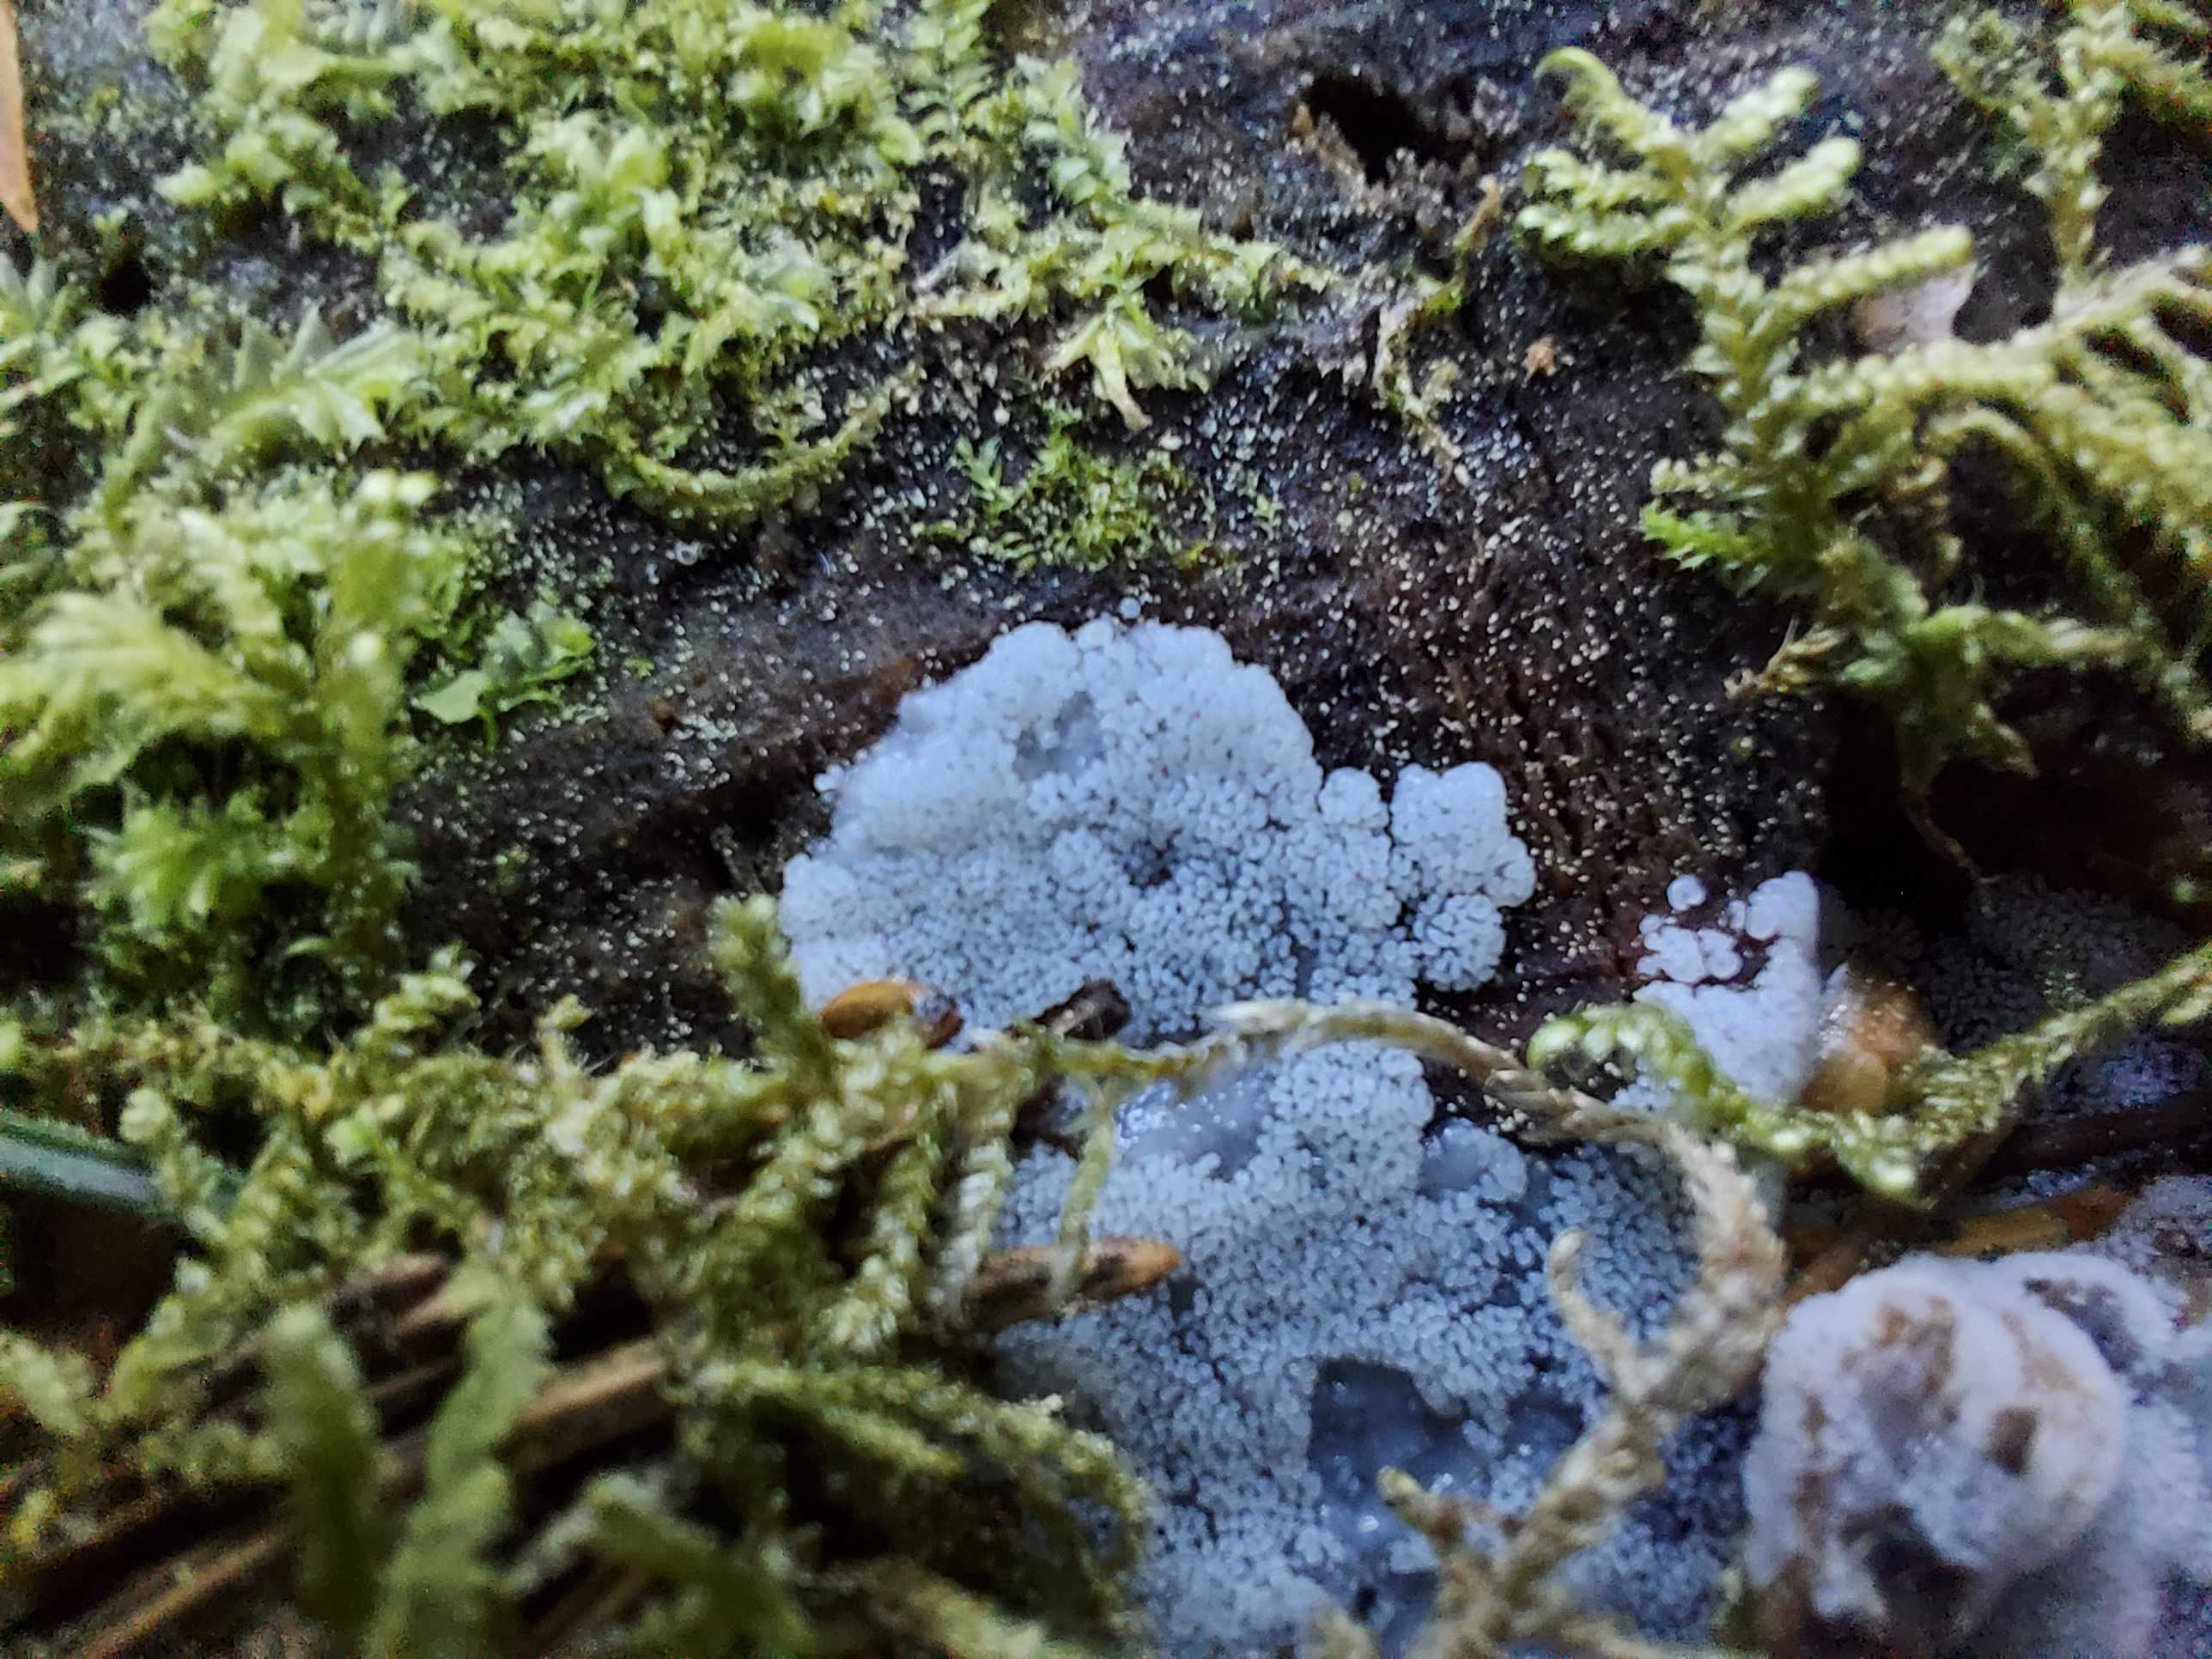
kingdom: Protozoa
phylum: Mycetozoa
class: Protosteliomycetes
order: Ceratiomyxales
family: Ceratiomyxaceae
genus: Ceratiomyxa
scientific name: Ceratiomyxa fruticulosa
